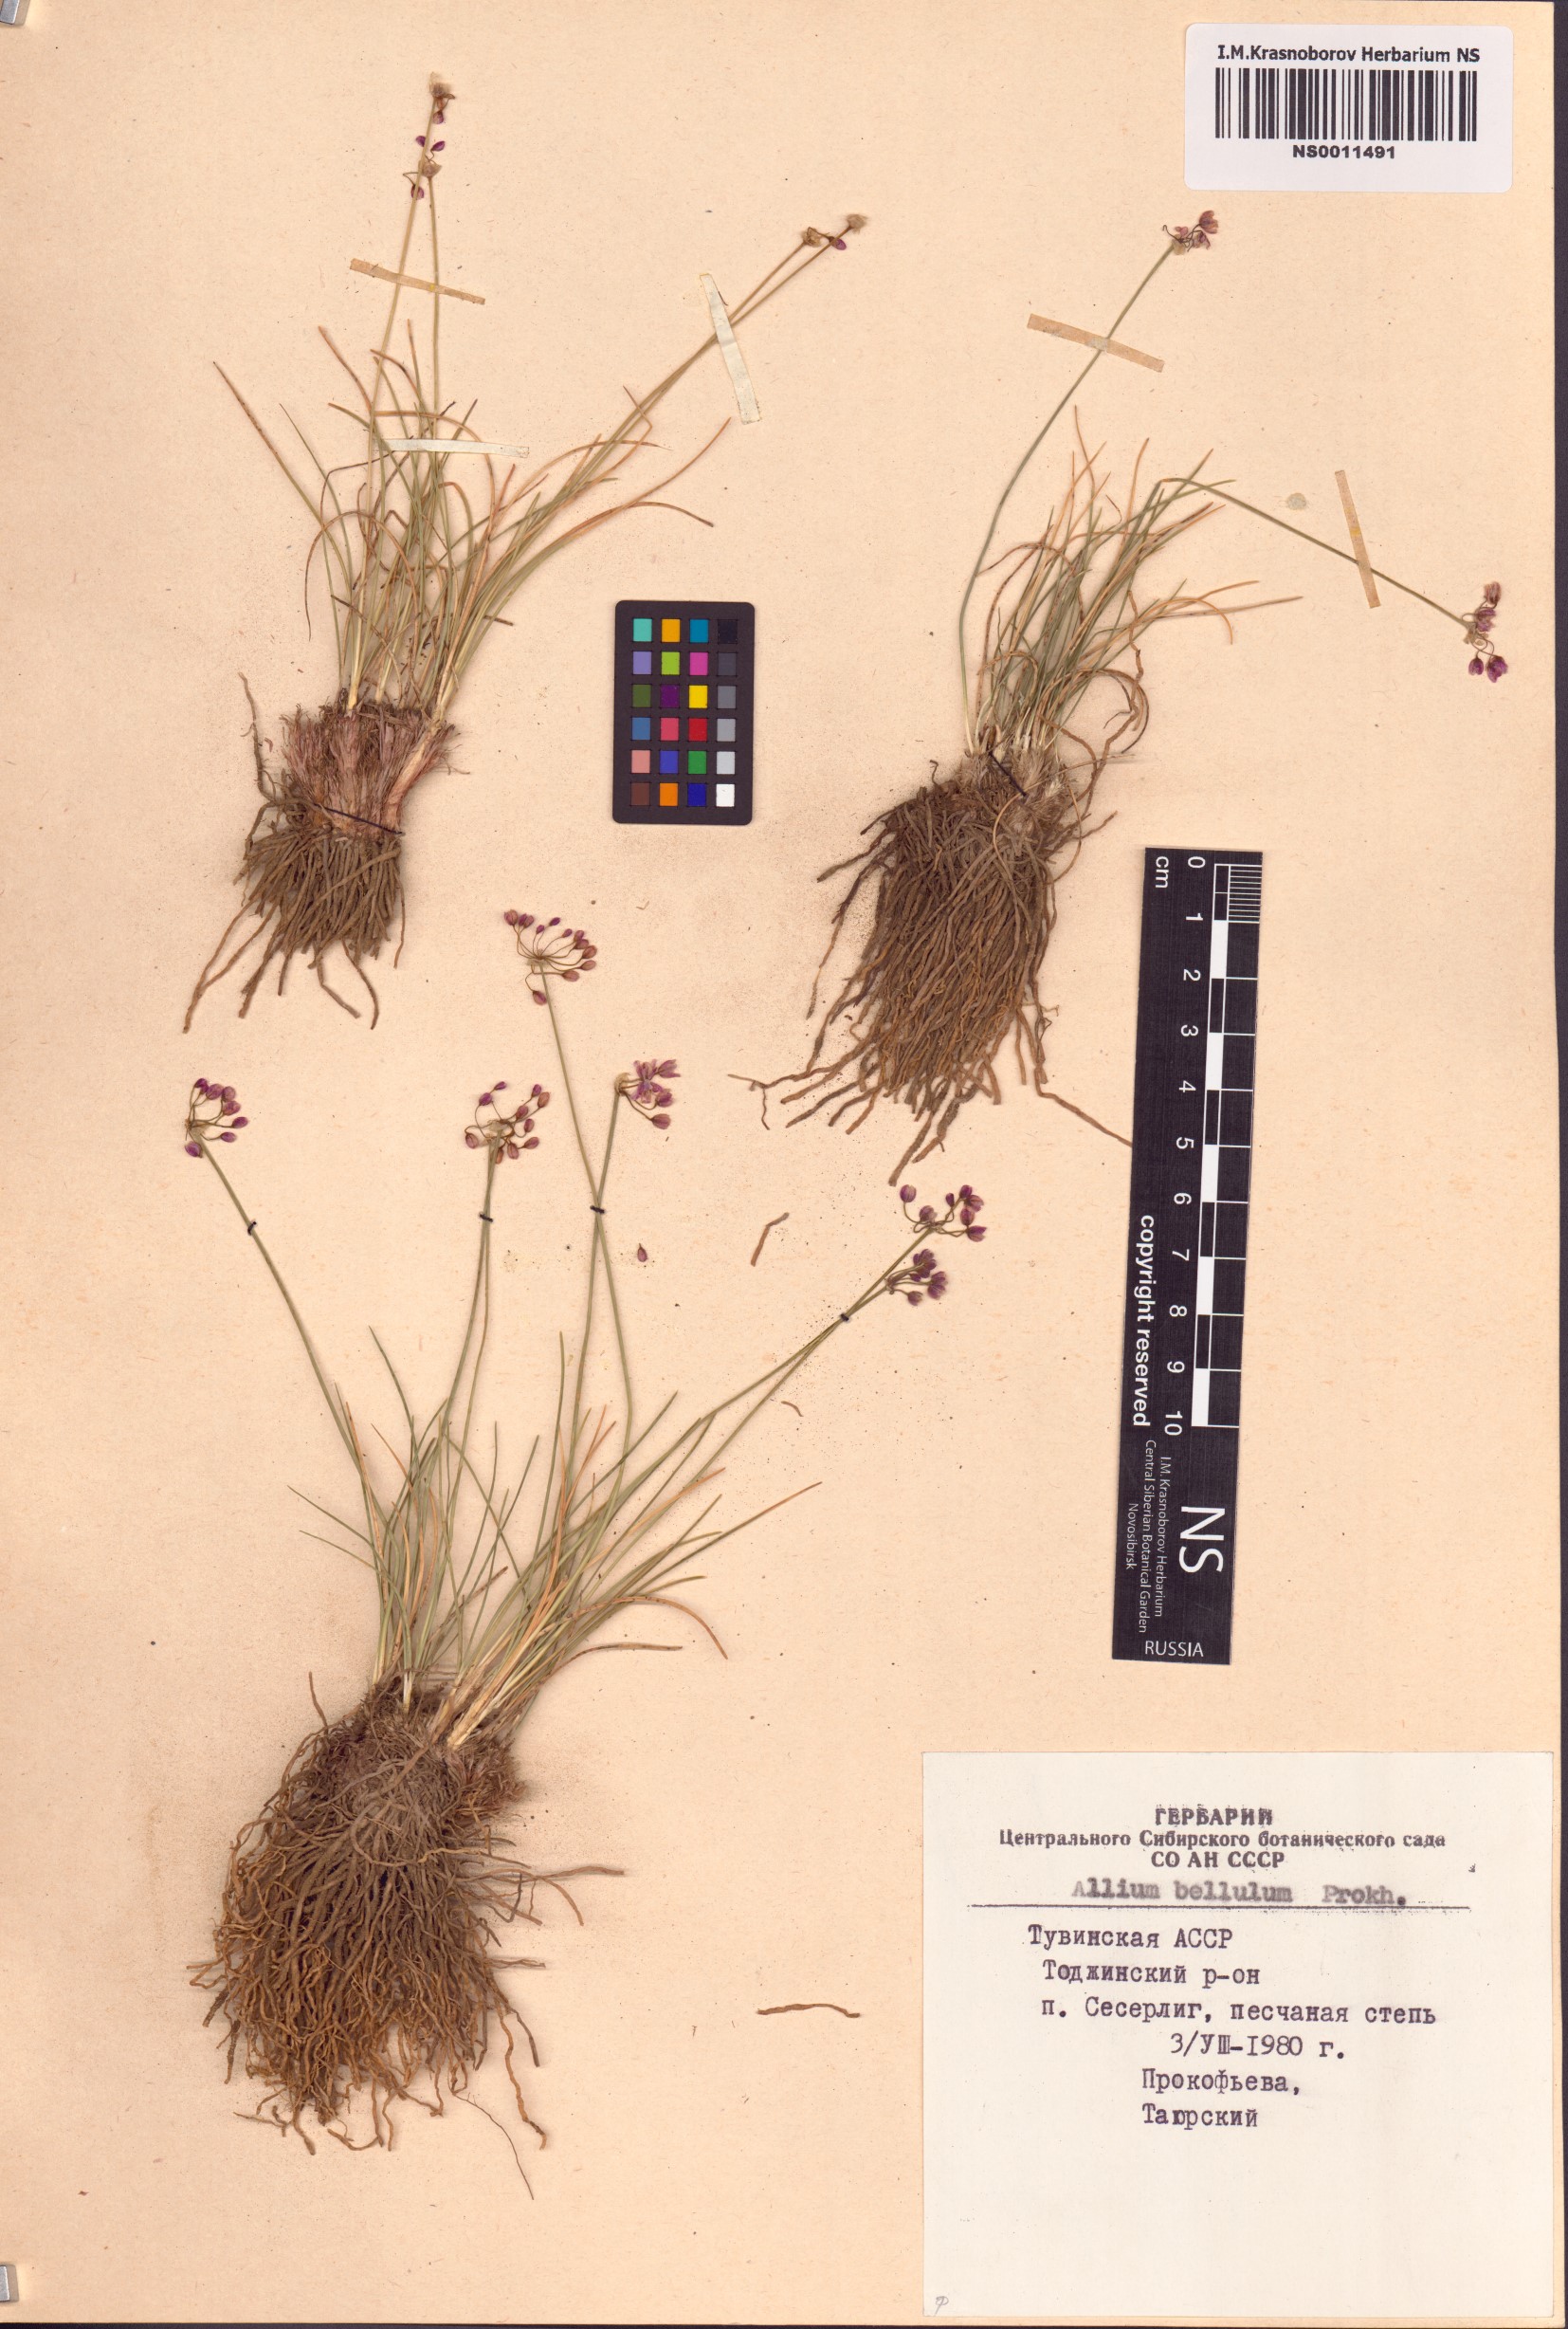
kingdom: Plantae
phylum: Tracheophyta
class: Liliopsida
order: Asparagales
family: Amaryllidaceae
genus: Allium
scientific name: Allium bellulum
